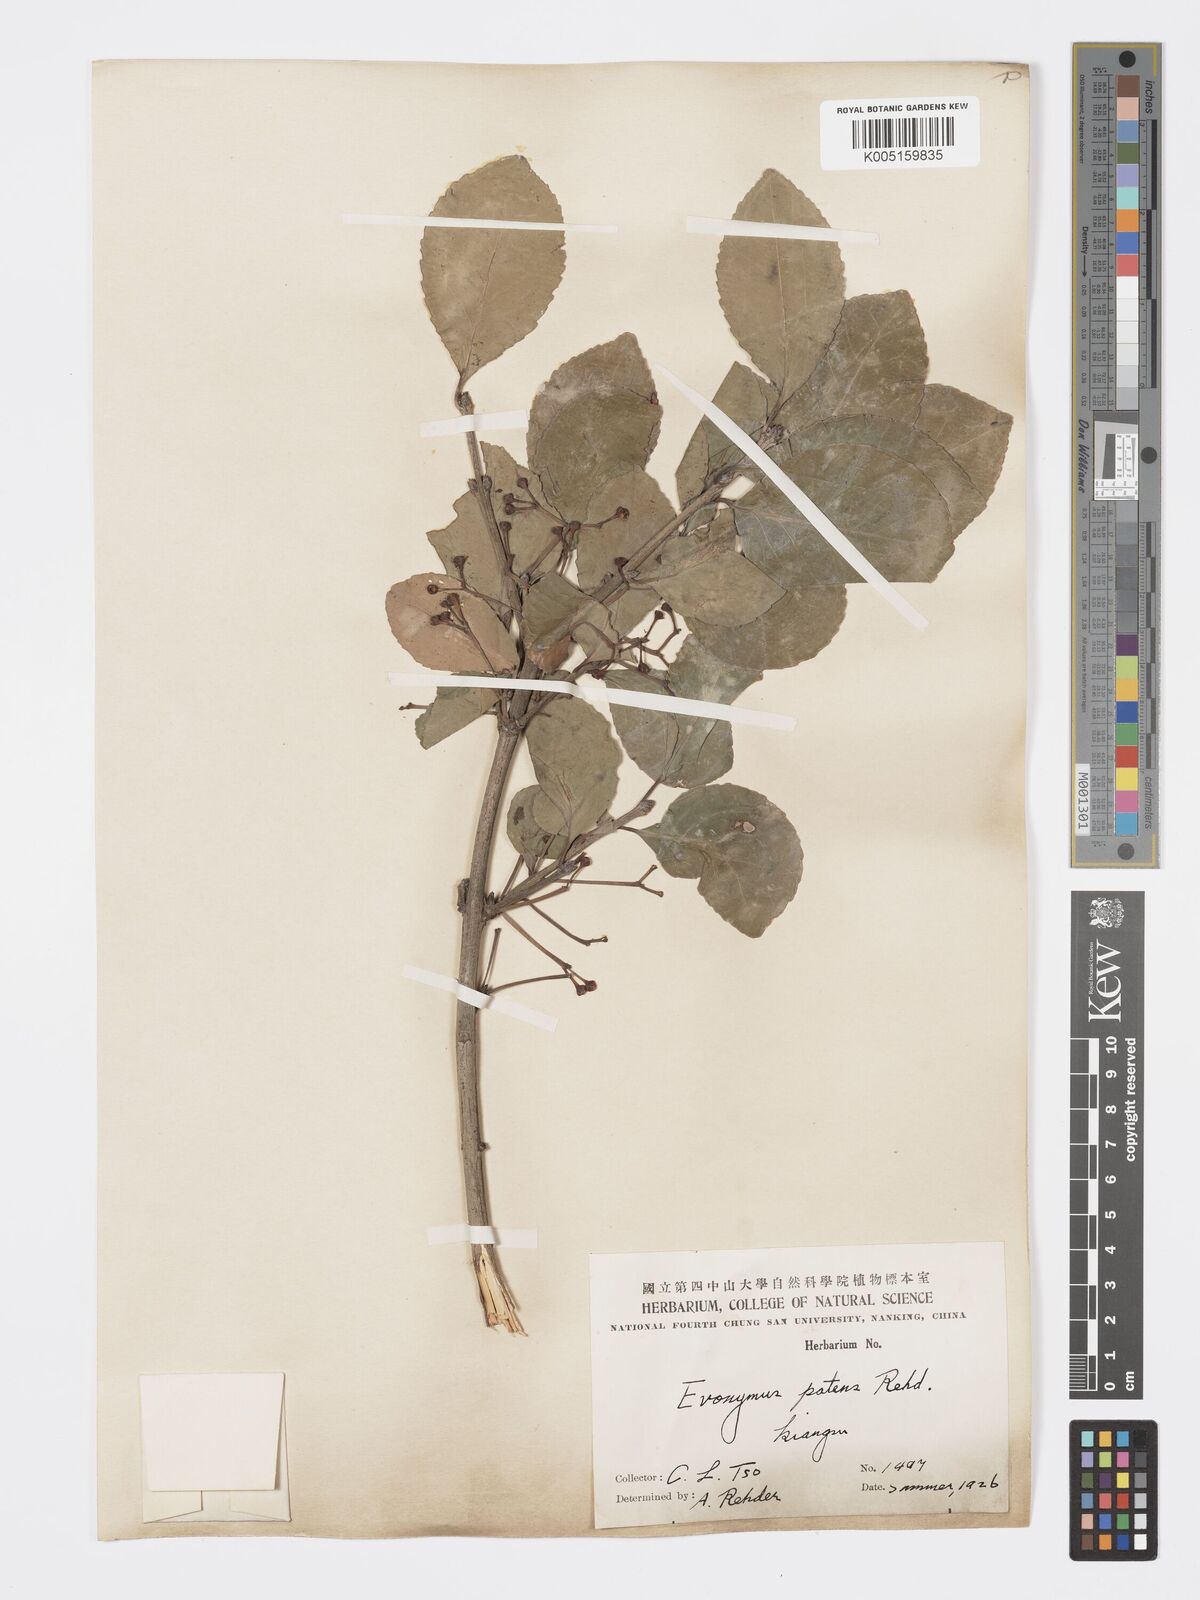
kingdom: Plantae
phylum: Tracheophyta
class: Magnoliopsida
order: Celastrales
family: Celastraceae
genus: Euonymus
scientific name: Euonymus
